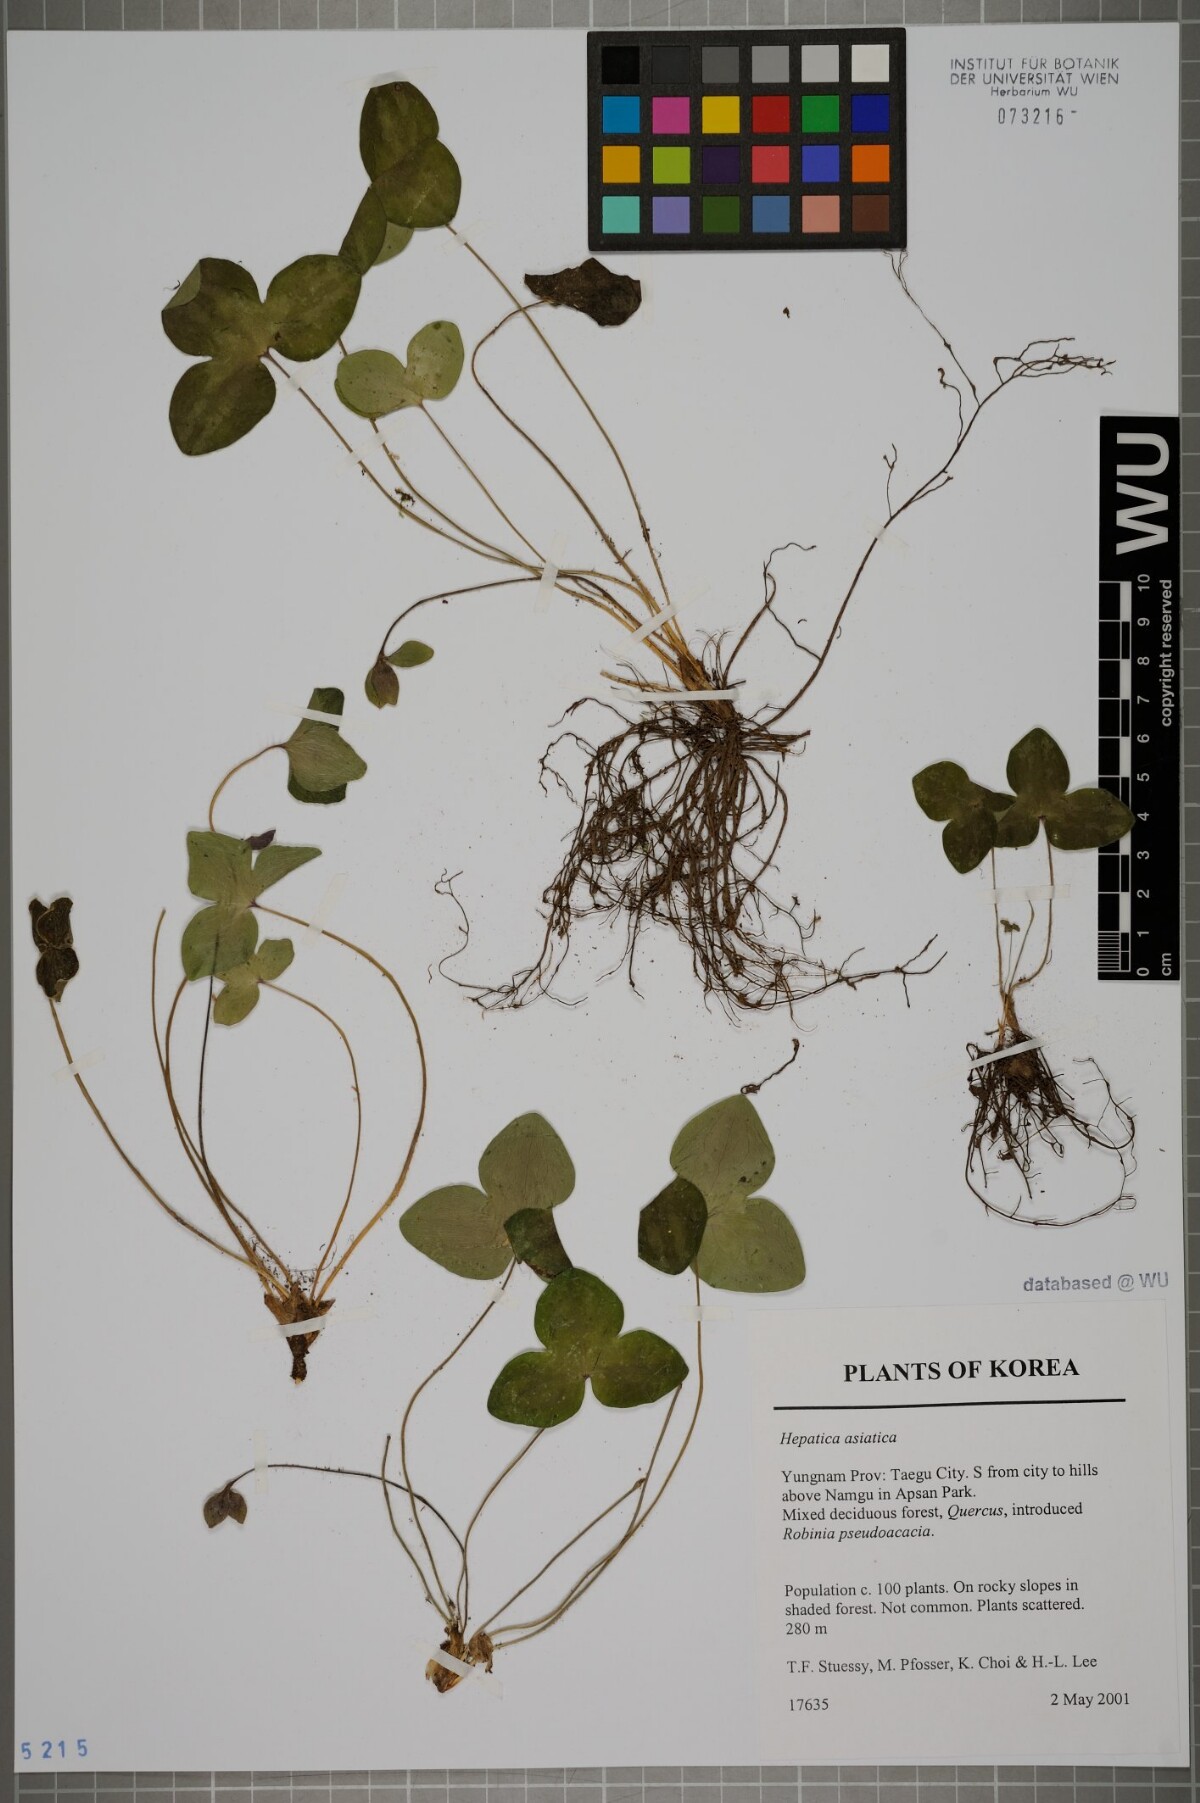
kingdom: Plantae
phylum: Tracheophyta
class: Magnoliopsida
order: Ranunculales
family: Ranunculaceae
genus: Hepatica
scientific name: Hepatica asiatica
